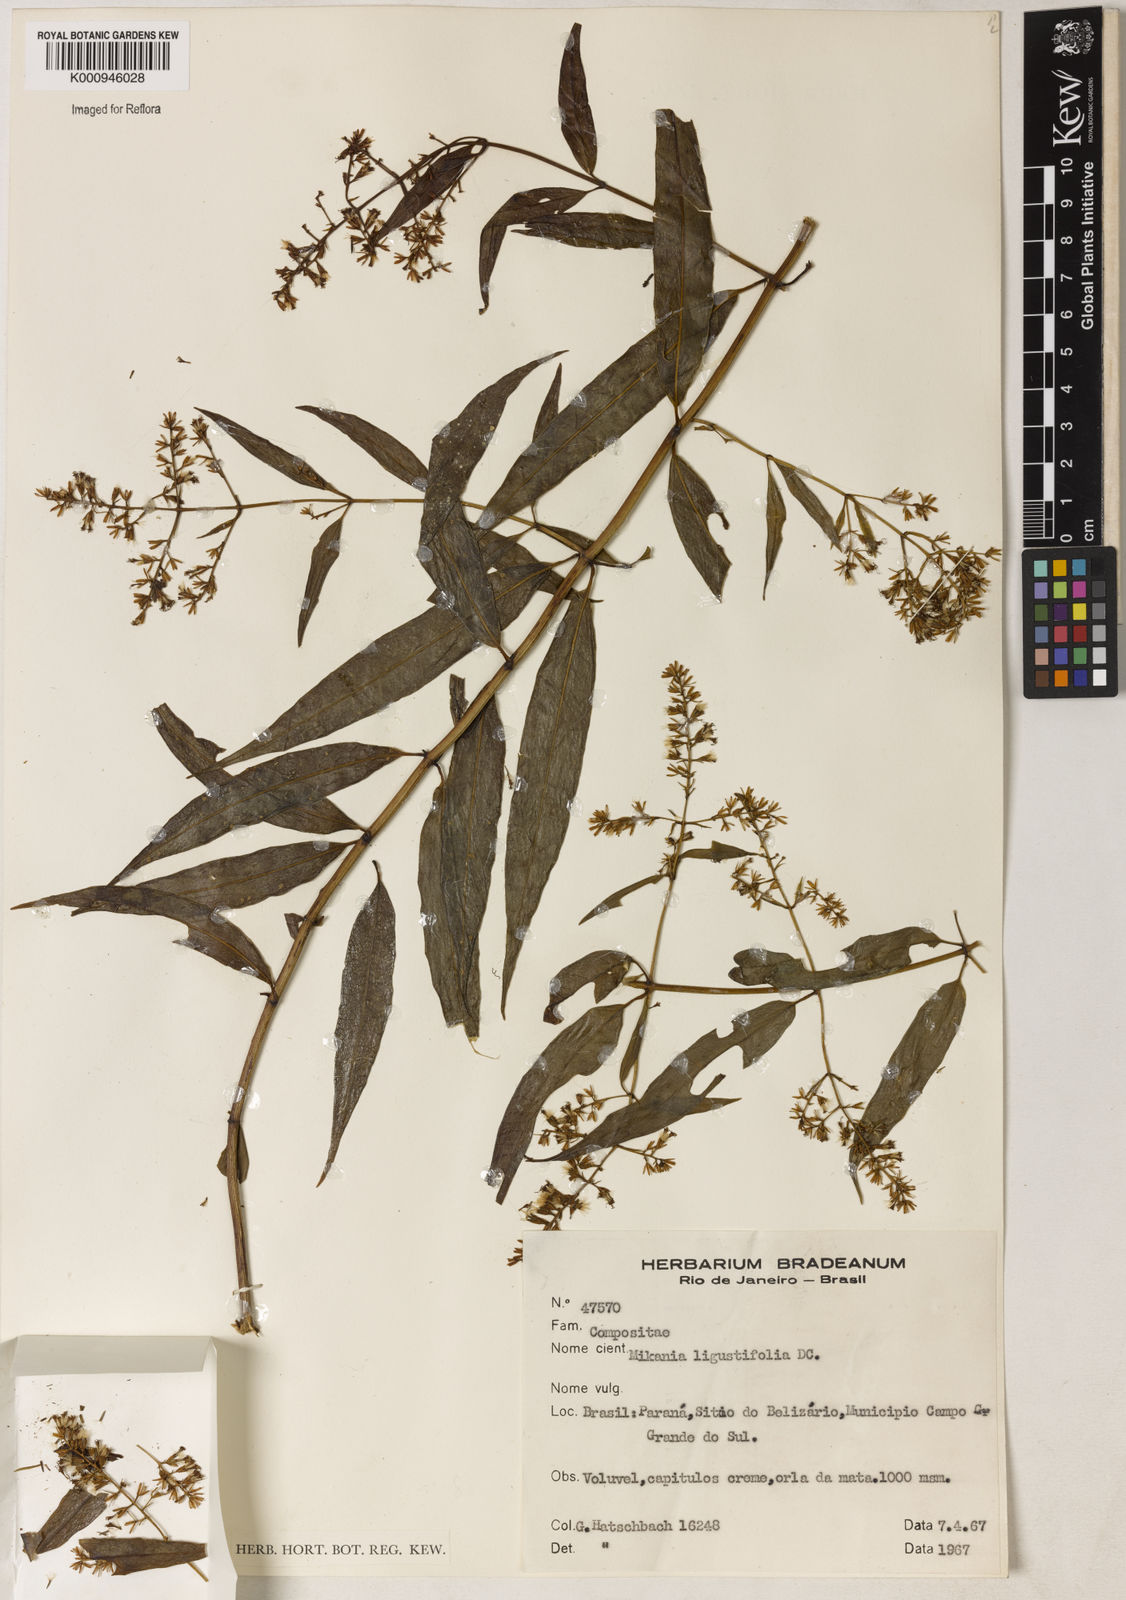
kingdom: Plantae
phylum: Tracheophyta
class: Magnoliopsida
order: Asterales
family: Asteraceae
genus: Mikania
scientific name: Mikania ligustrifolia
